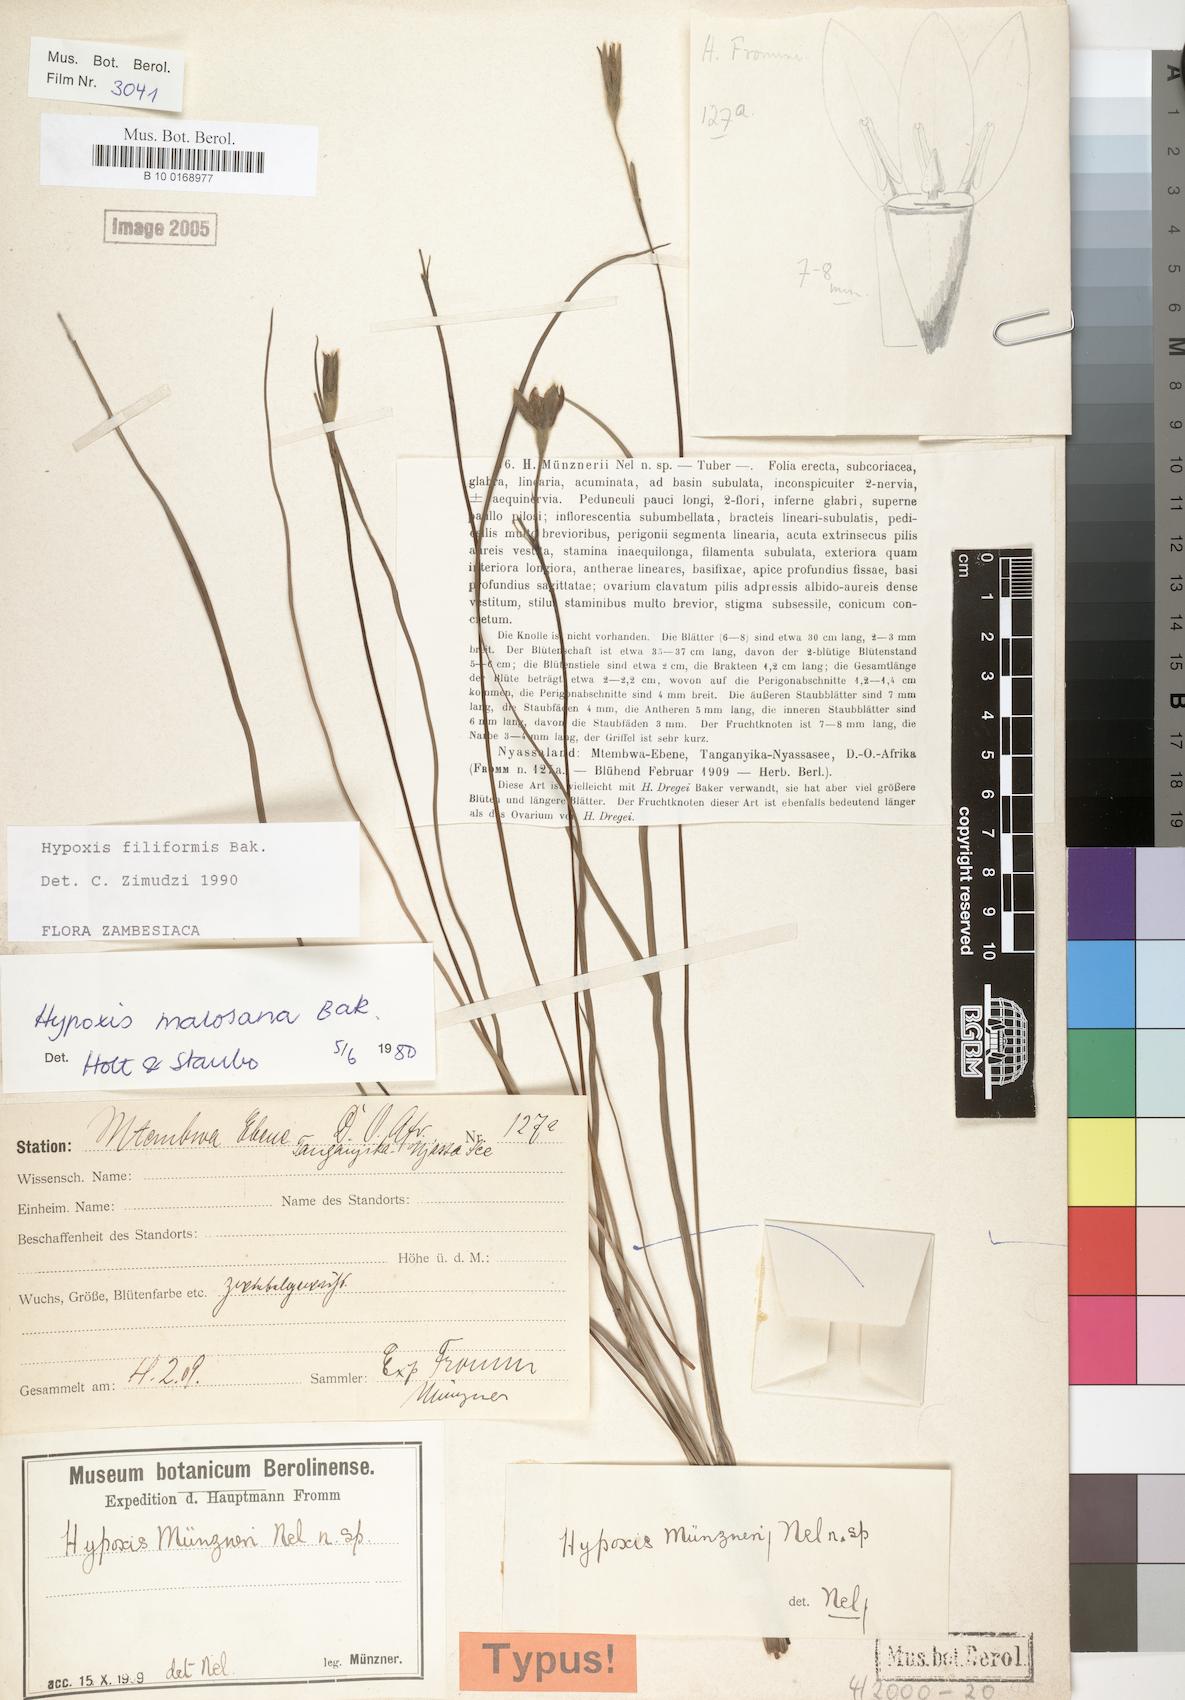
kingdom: Plantae
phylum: Tracheophyta
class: Liliopsida
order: Asparagales
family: Hypoxidaceae
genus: Hypoxis
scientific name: Hypoxis filiformis
